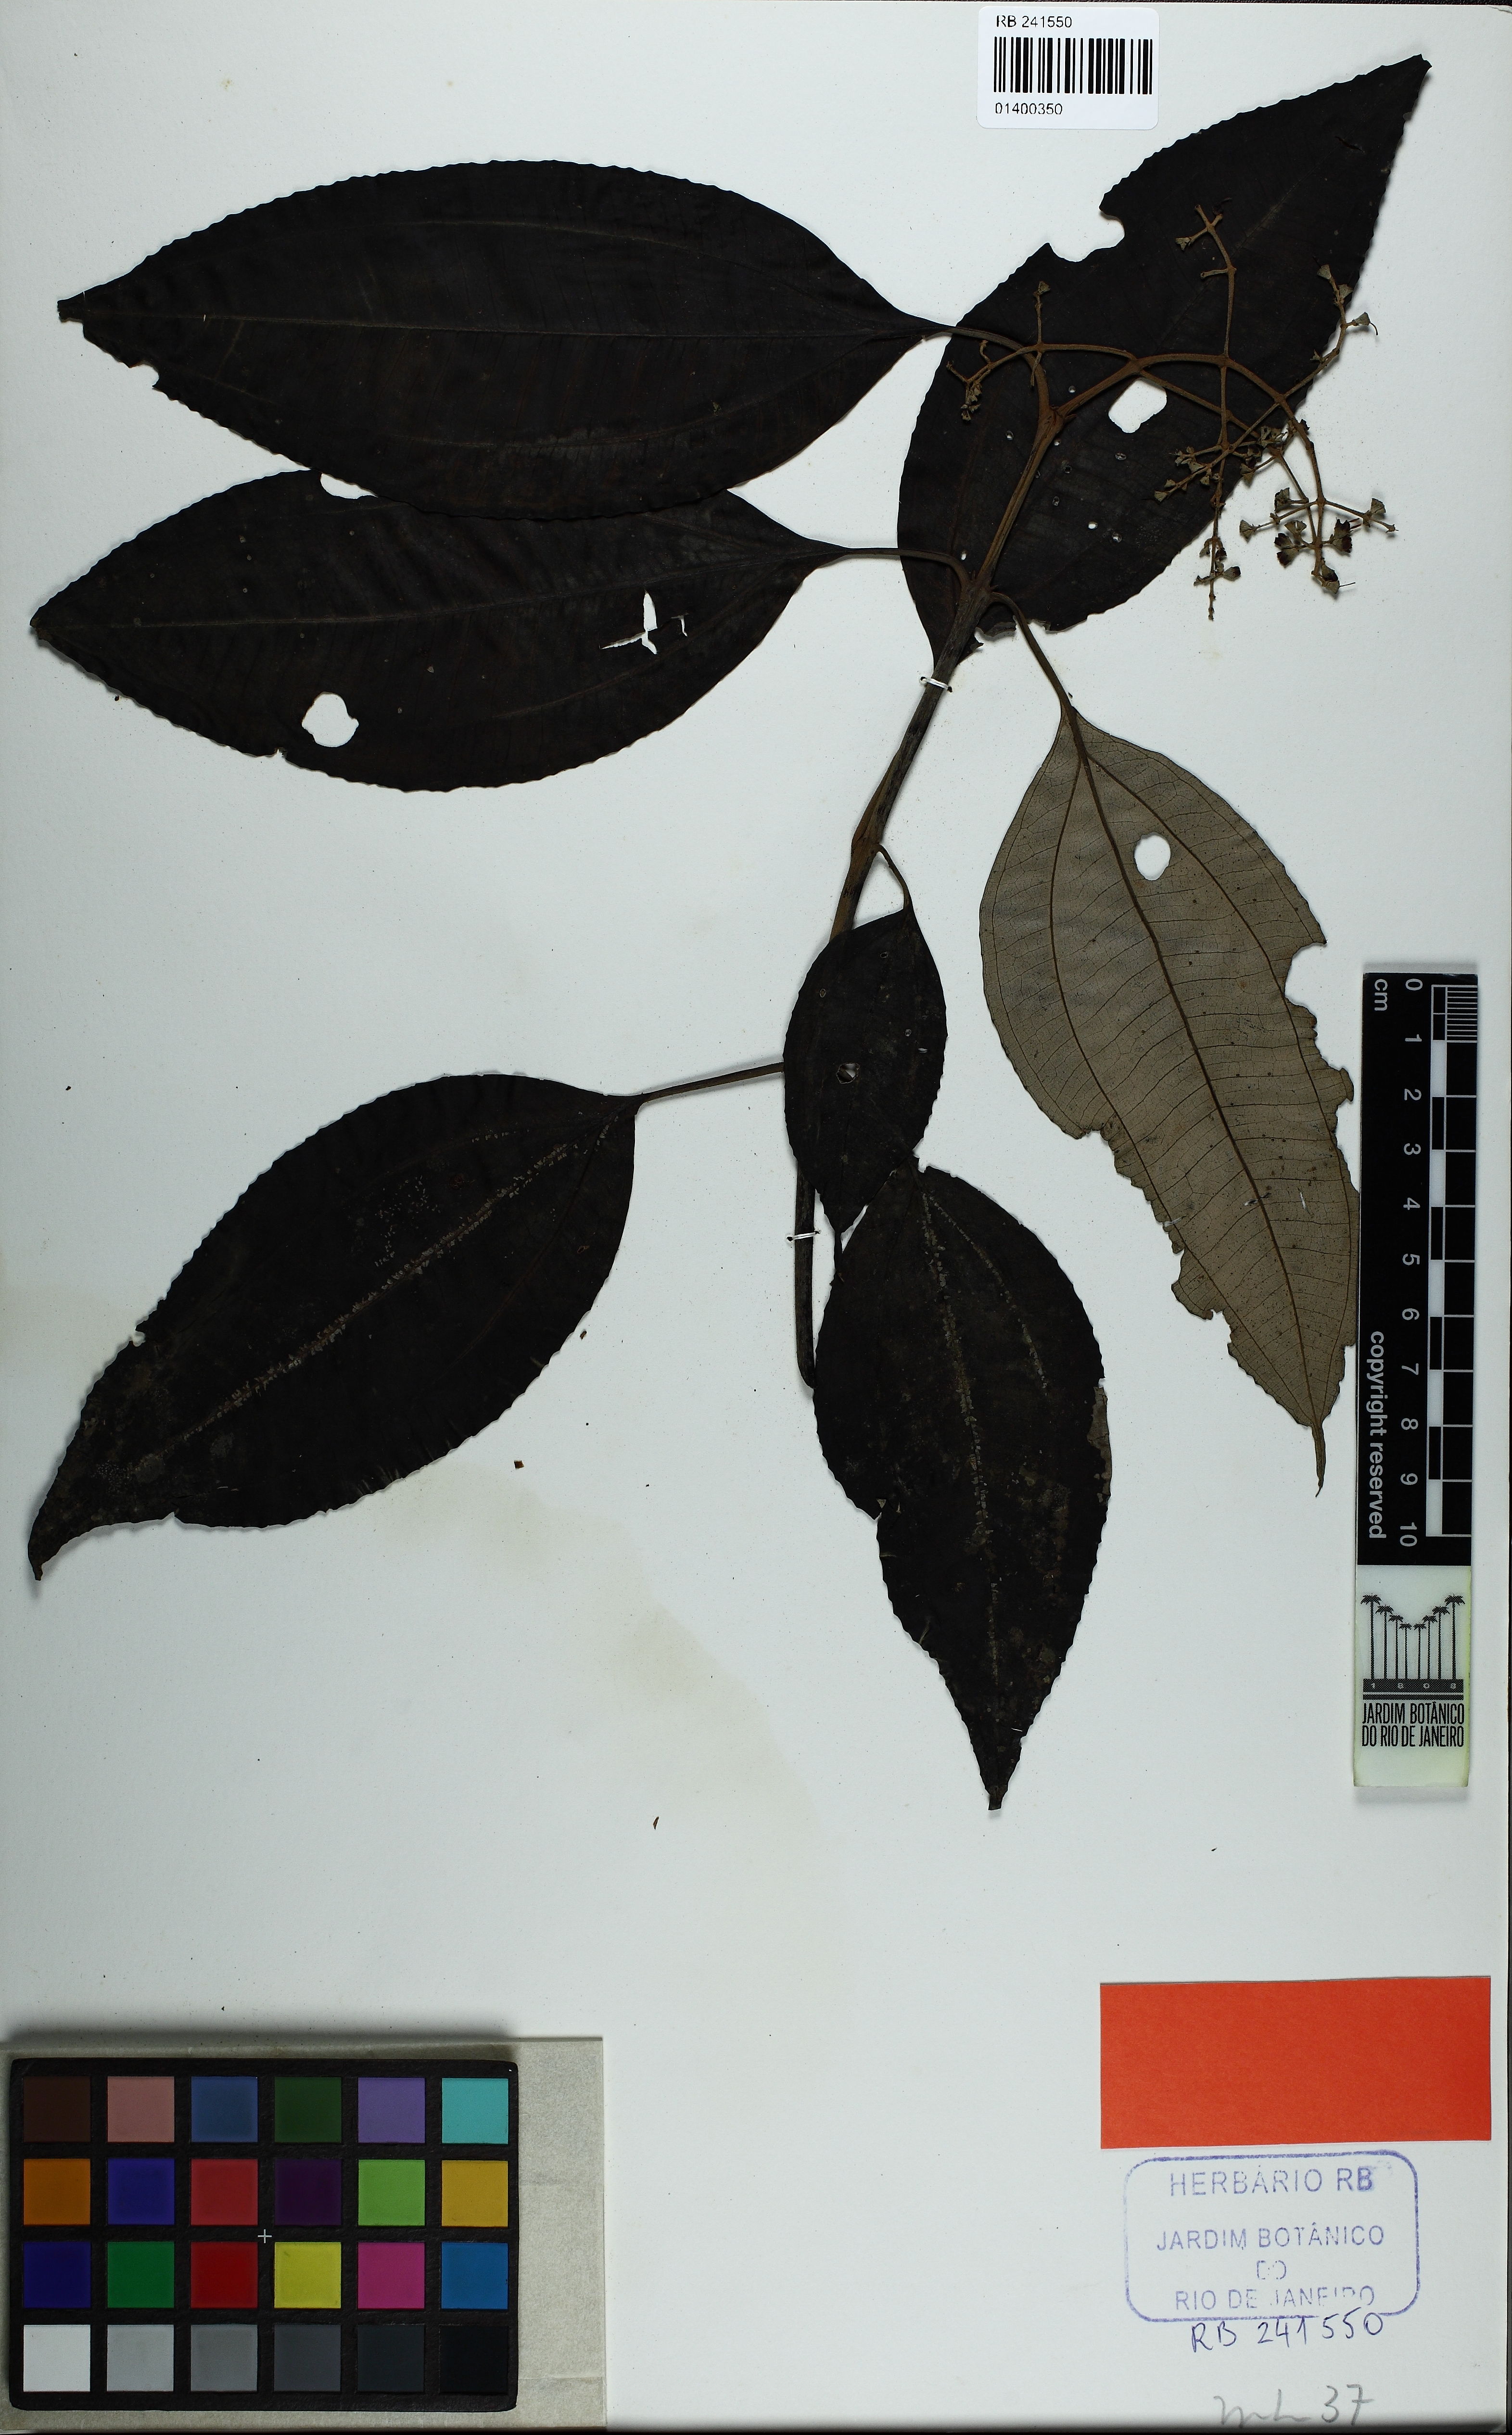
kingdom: Plantae
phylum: Tracheophyta
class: Magnoliopsida
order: Myrtales
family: Melastomataceae
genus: Miconia
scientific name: Miconia goldenbergiana
